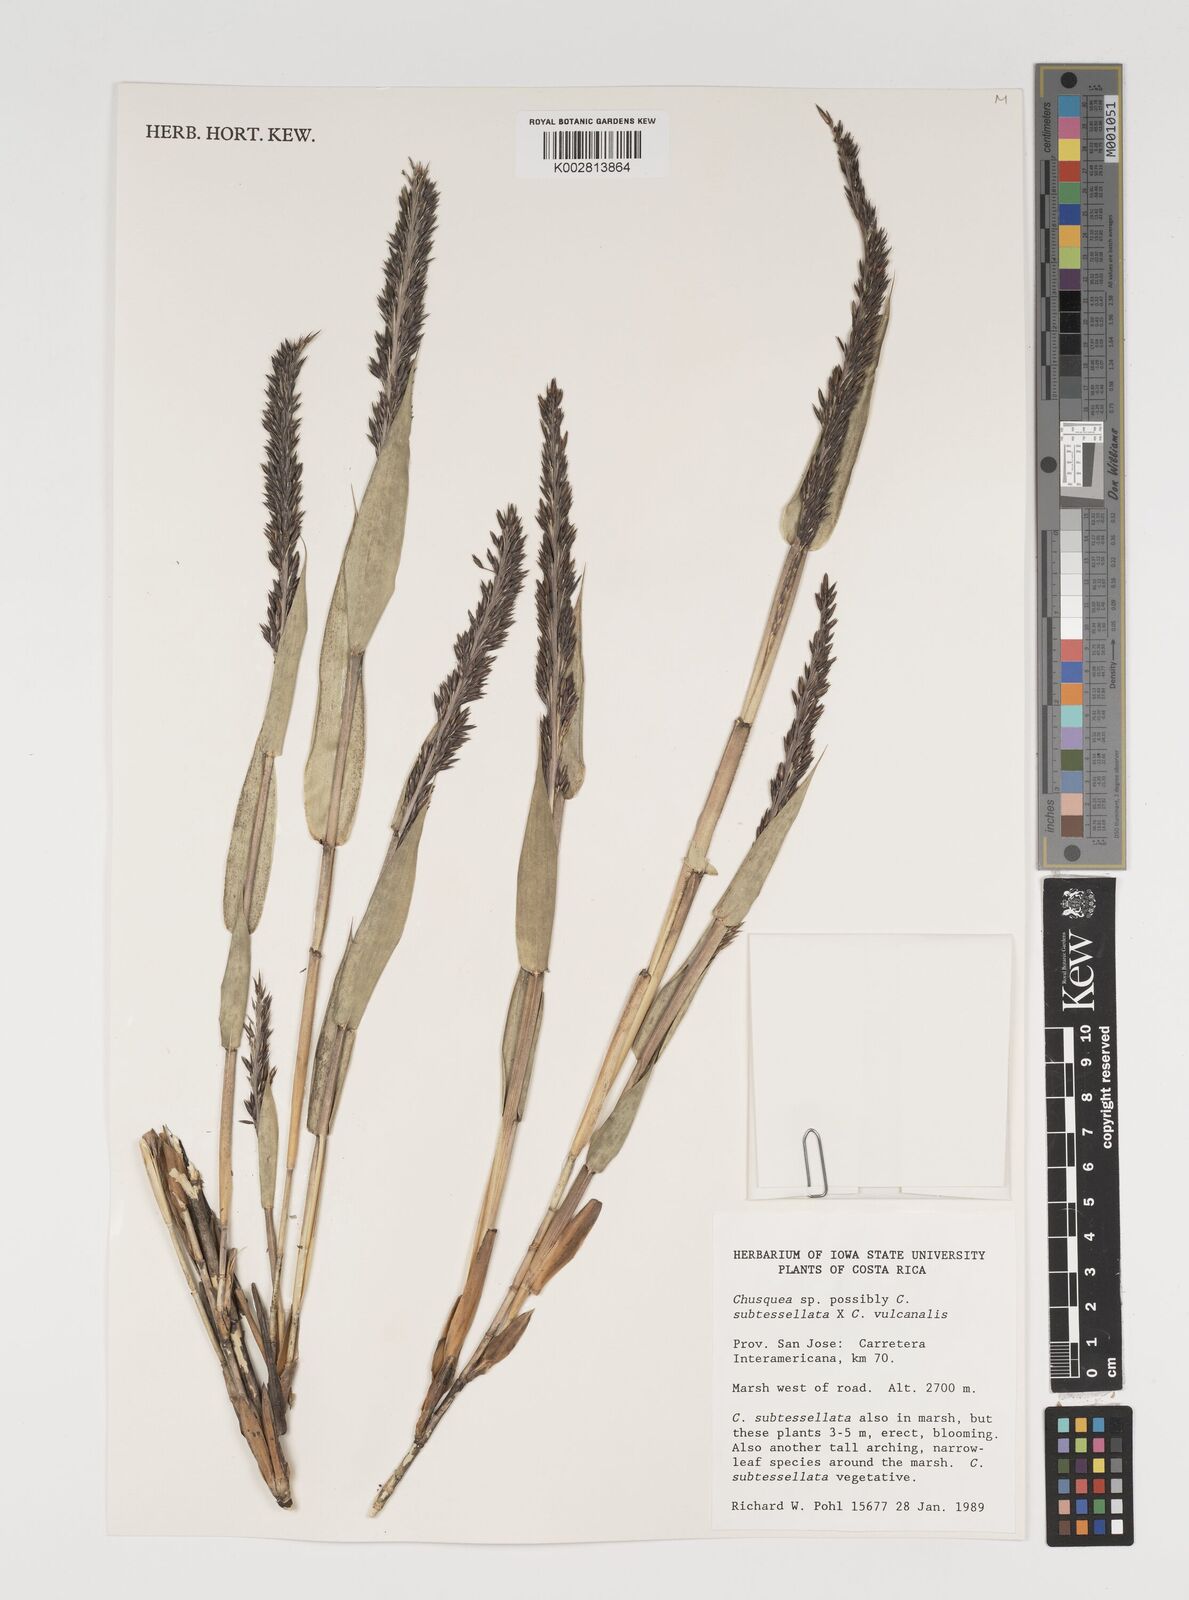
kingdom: Plantae
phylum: Tracheophyta
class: Liliopsida
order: Poales
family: Poaceae
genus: Chusquea
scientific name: Chusquea subtessellata
